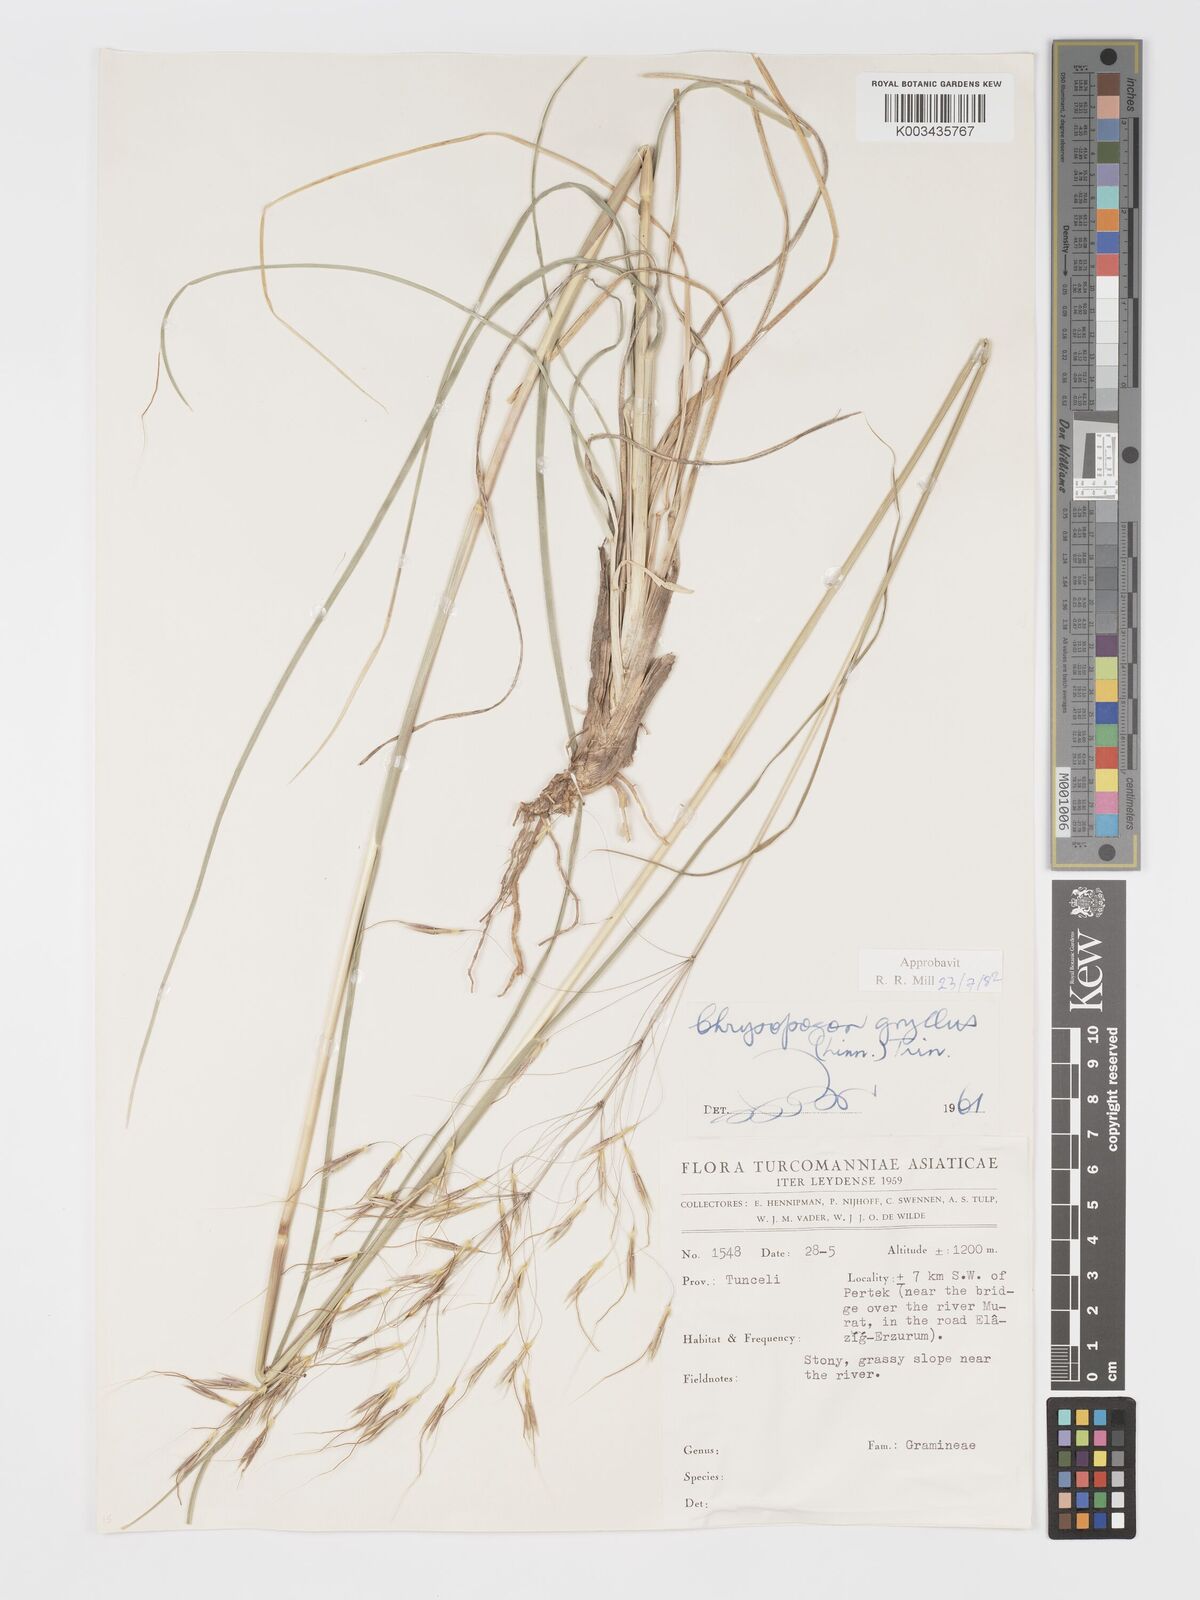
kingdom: Plantae
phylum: Tracheophyta
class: Liliopsida
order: Poales
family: Poaceae
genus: Chrysopogon
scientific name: Chrysopogon gryllus
